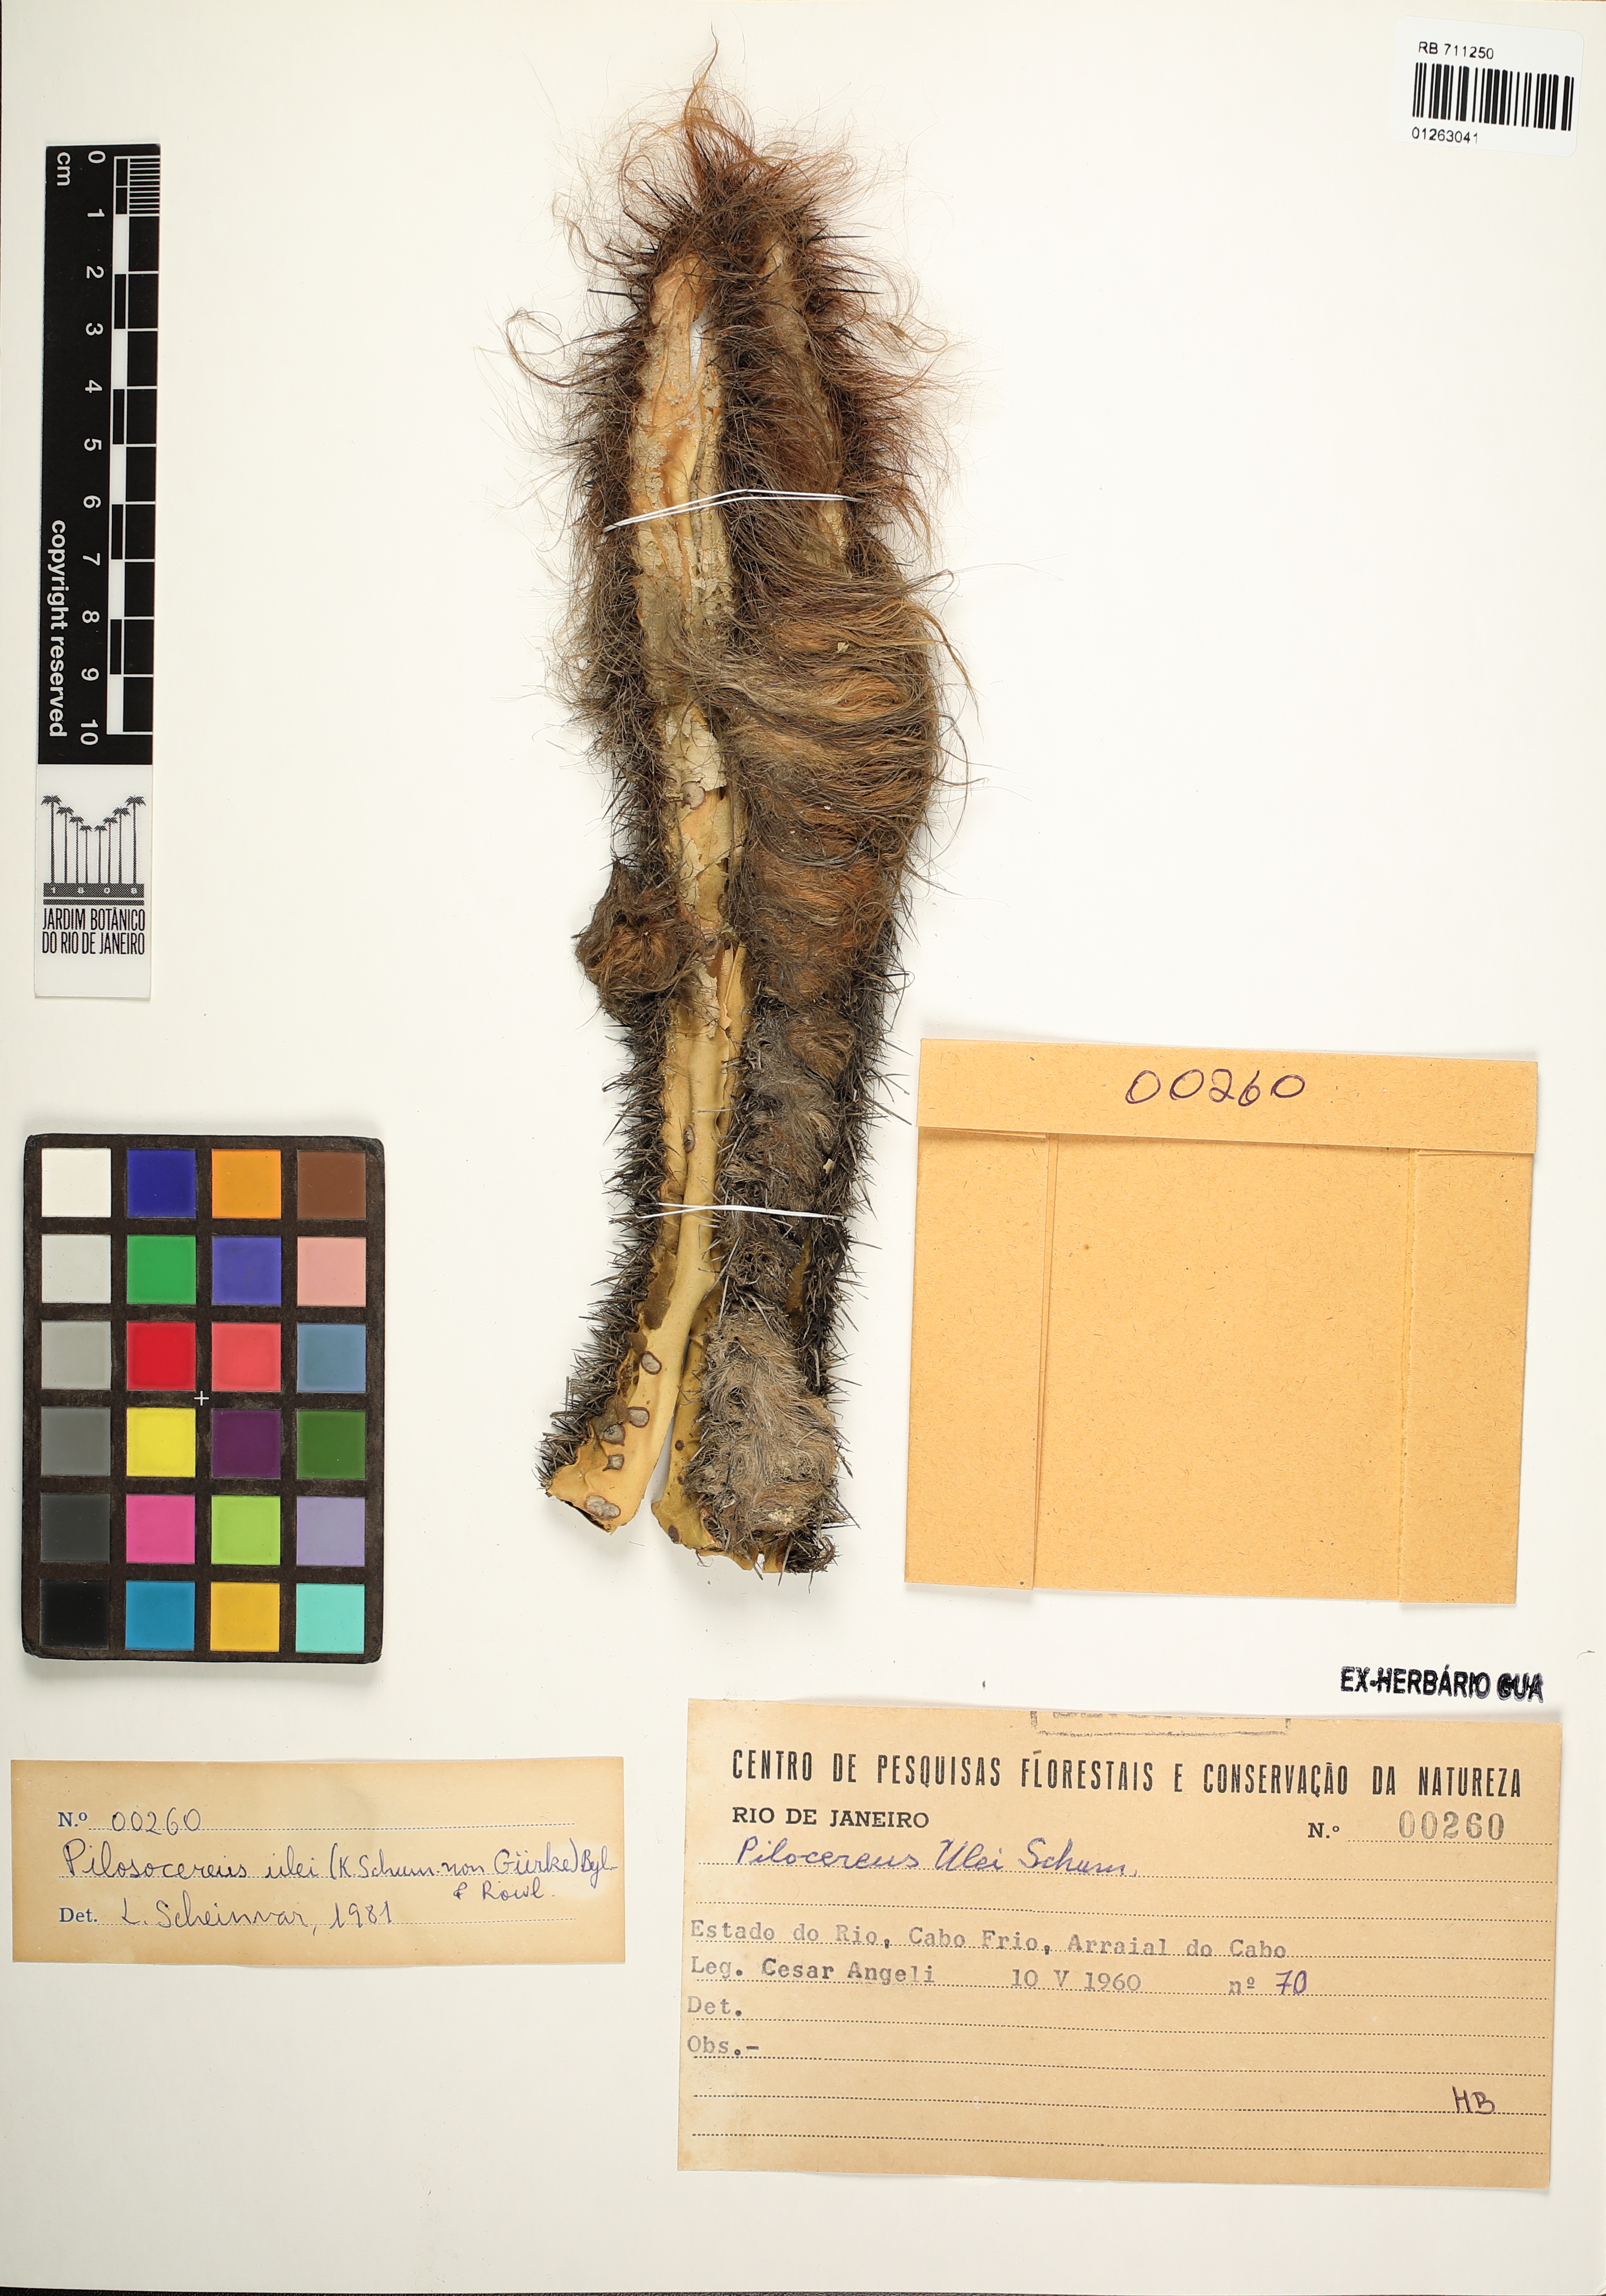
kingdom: Plantae
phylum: Tracheophyta
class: Magnoliopsida
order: Caryophyllales
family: Cactaceae
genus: Pilosocereus
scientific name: Pilosocereus ulei
